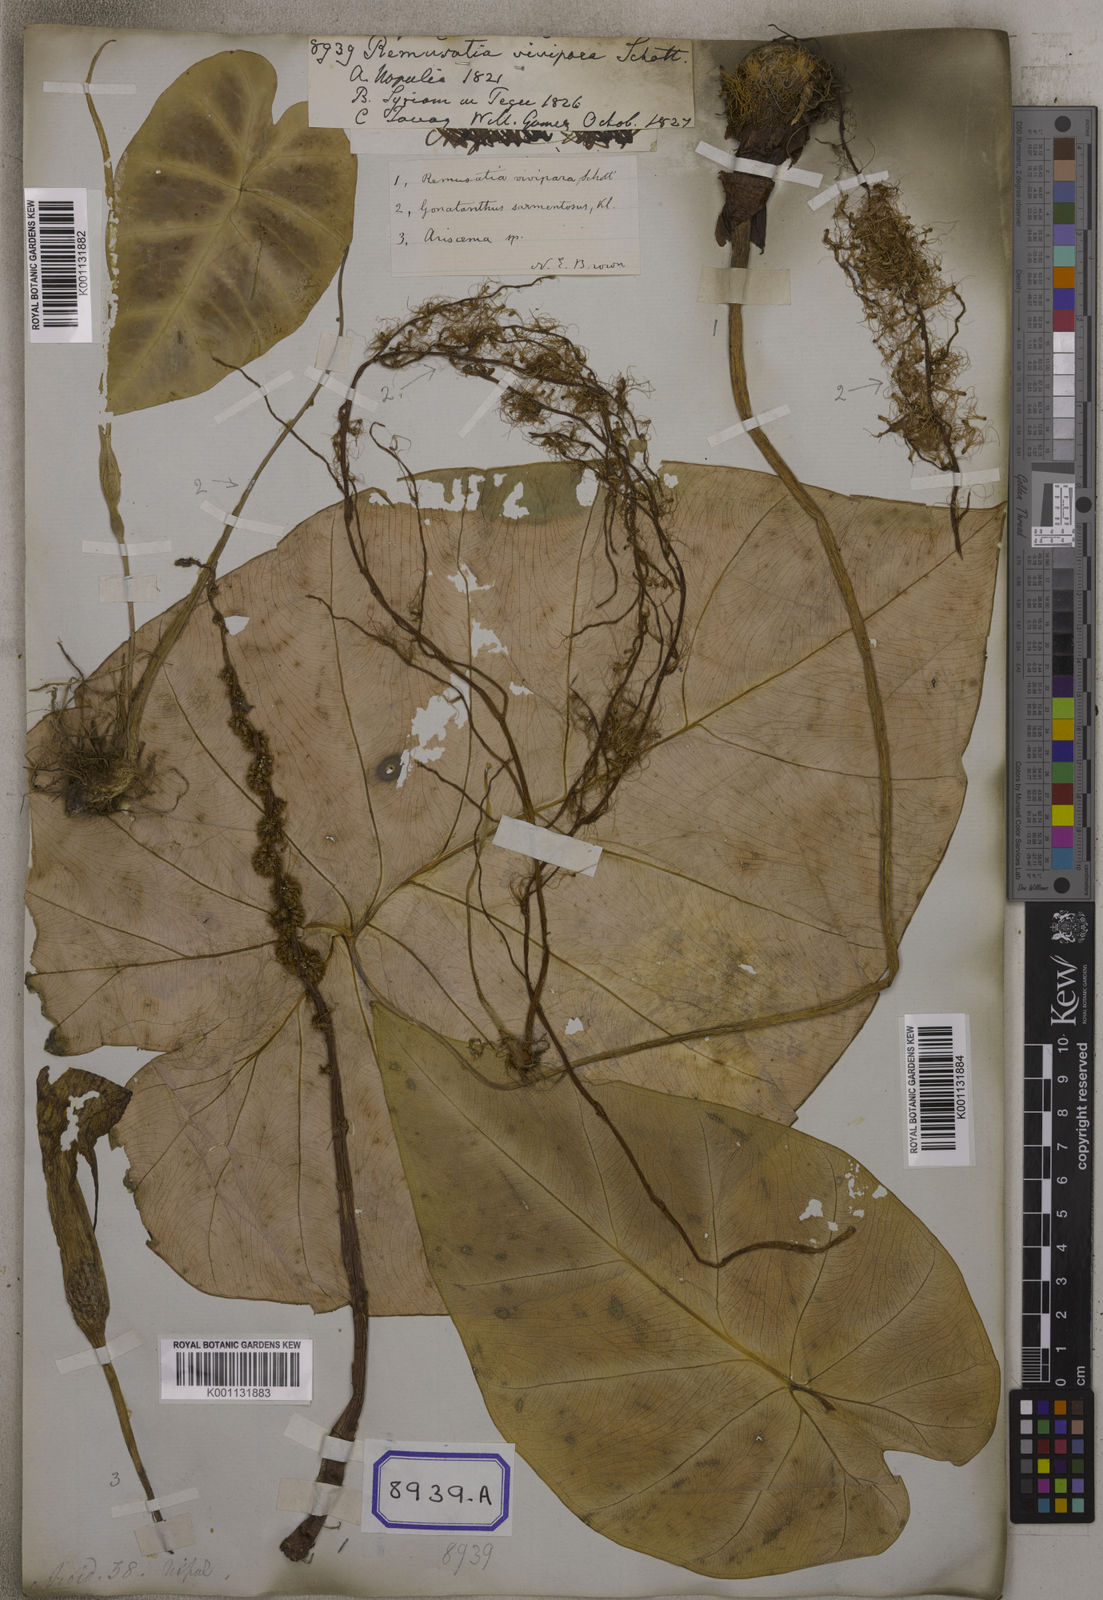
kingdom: Plantae
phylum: Tracheophyta
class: Liliopsida
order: Alismatales
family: Araceae
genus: Remusatia
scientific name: Remusatia vivipara
